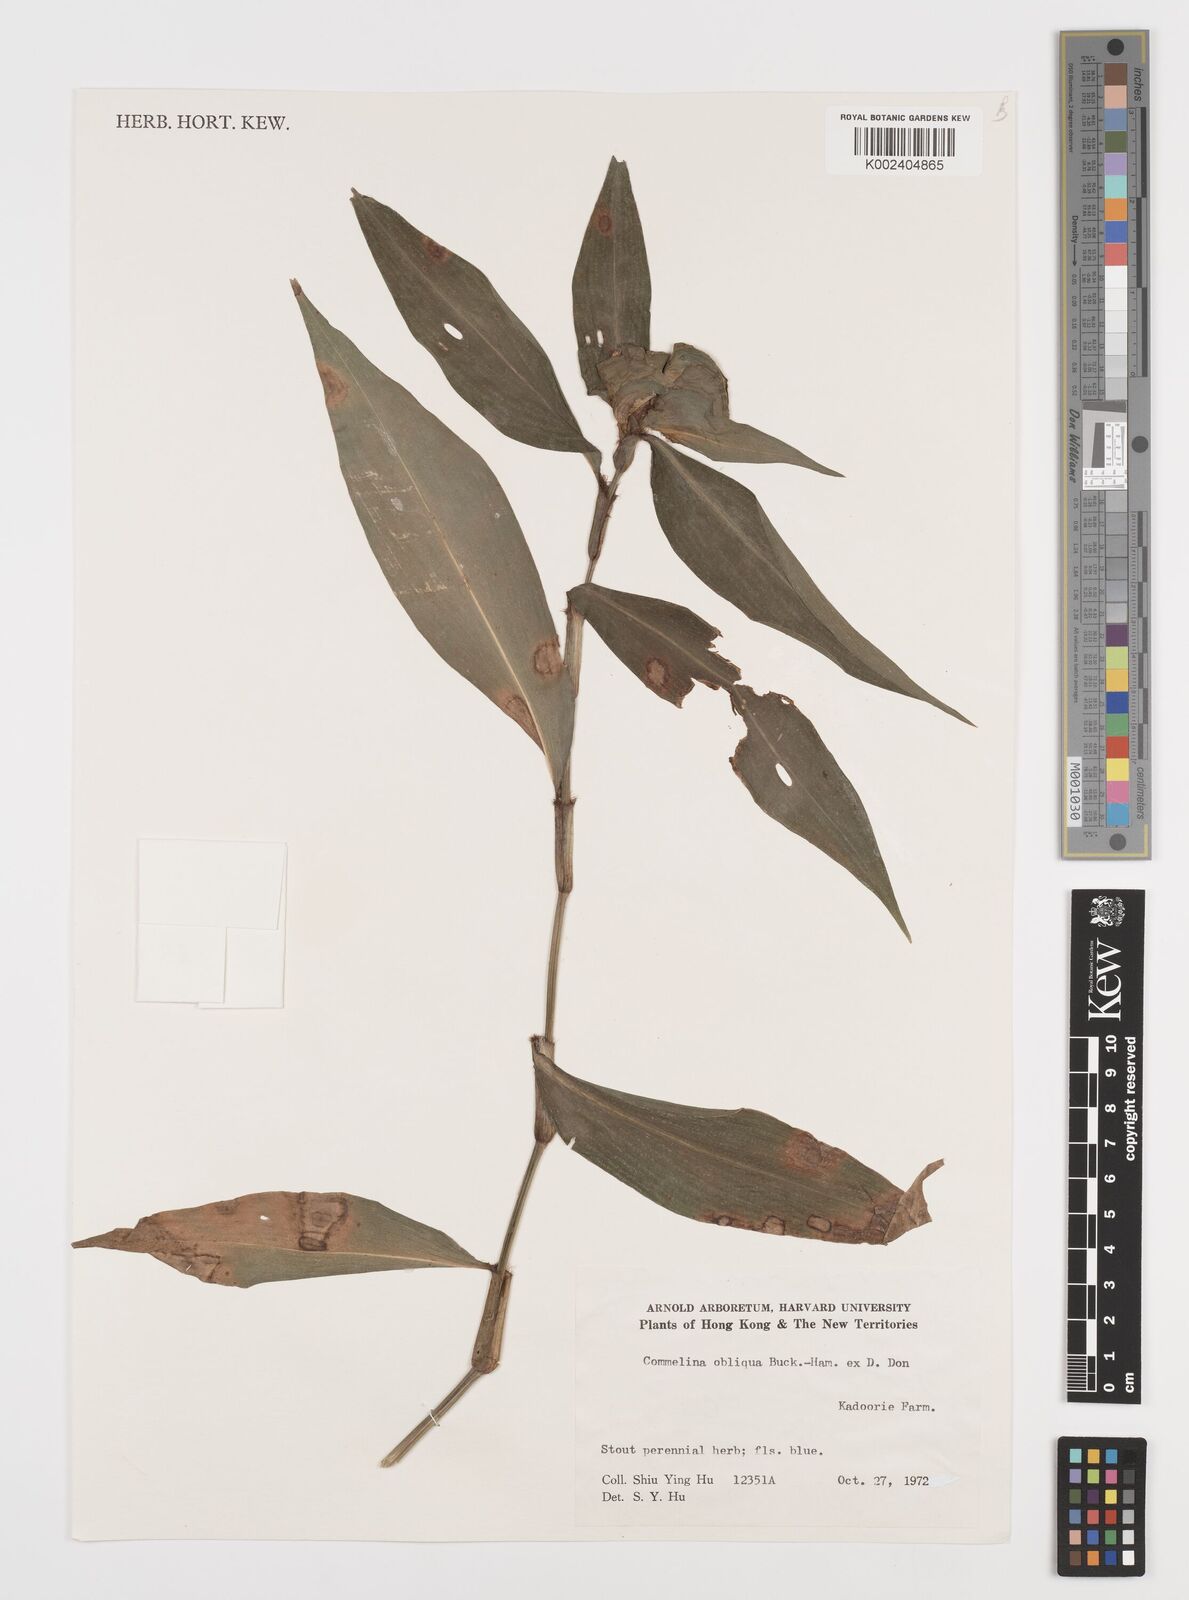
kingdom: Plantae
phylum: Tracheophyta
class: Liliopsida
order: Commelinales
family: Commelinaceae
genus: Commelina
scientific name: Commelina obliqua
